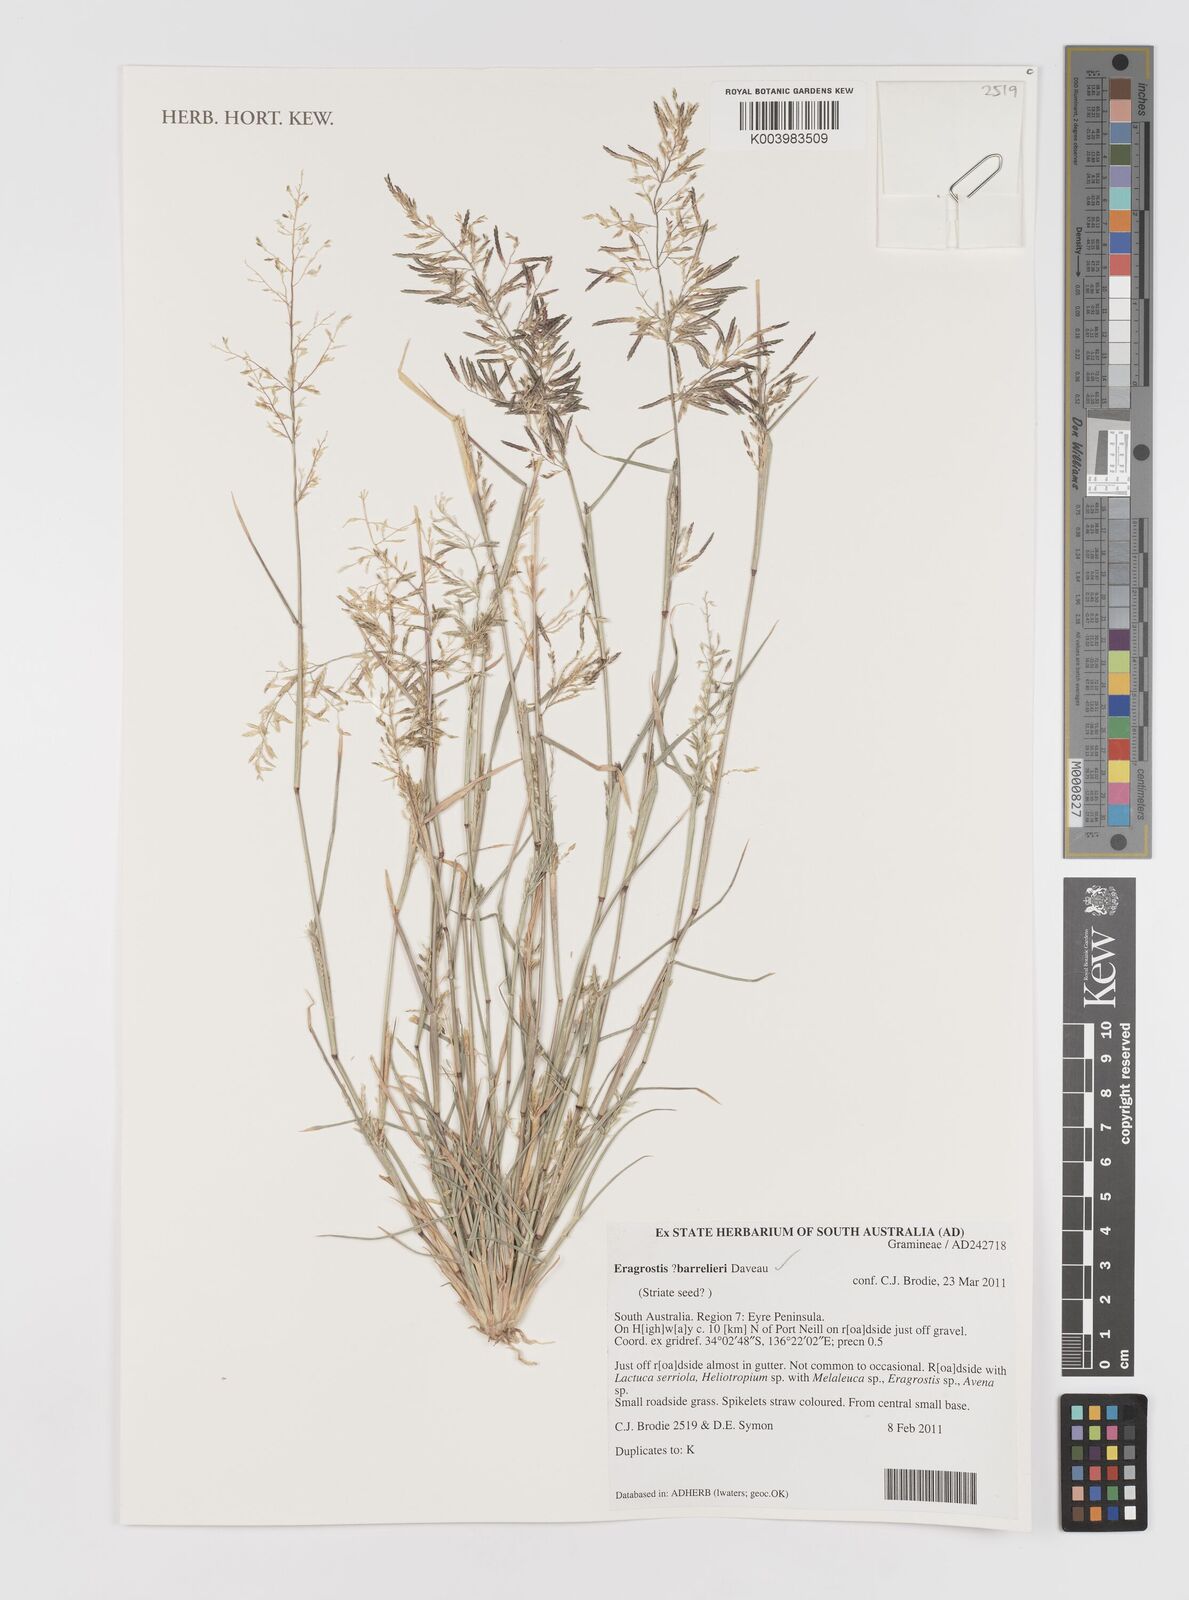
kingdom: Plantae
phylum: Tracheophyta
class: Liliopsida
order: Poales
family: Poaceae
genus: Eragrostis
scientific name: Eragrostis barrelieri
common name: Mediterranean lovegrass
